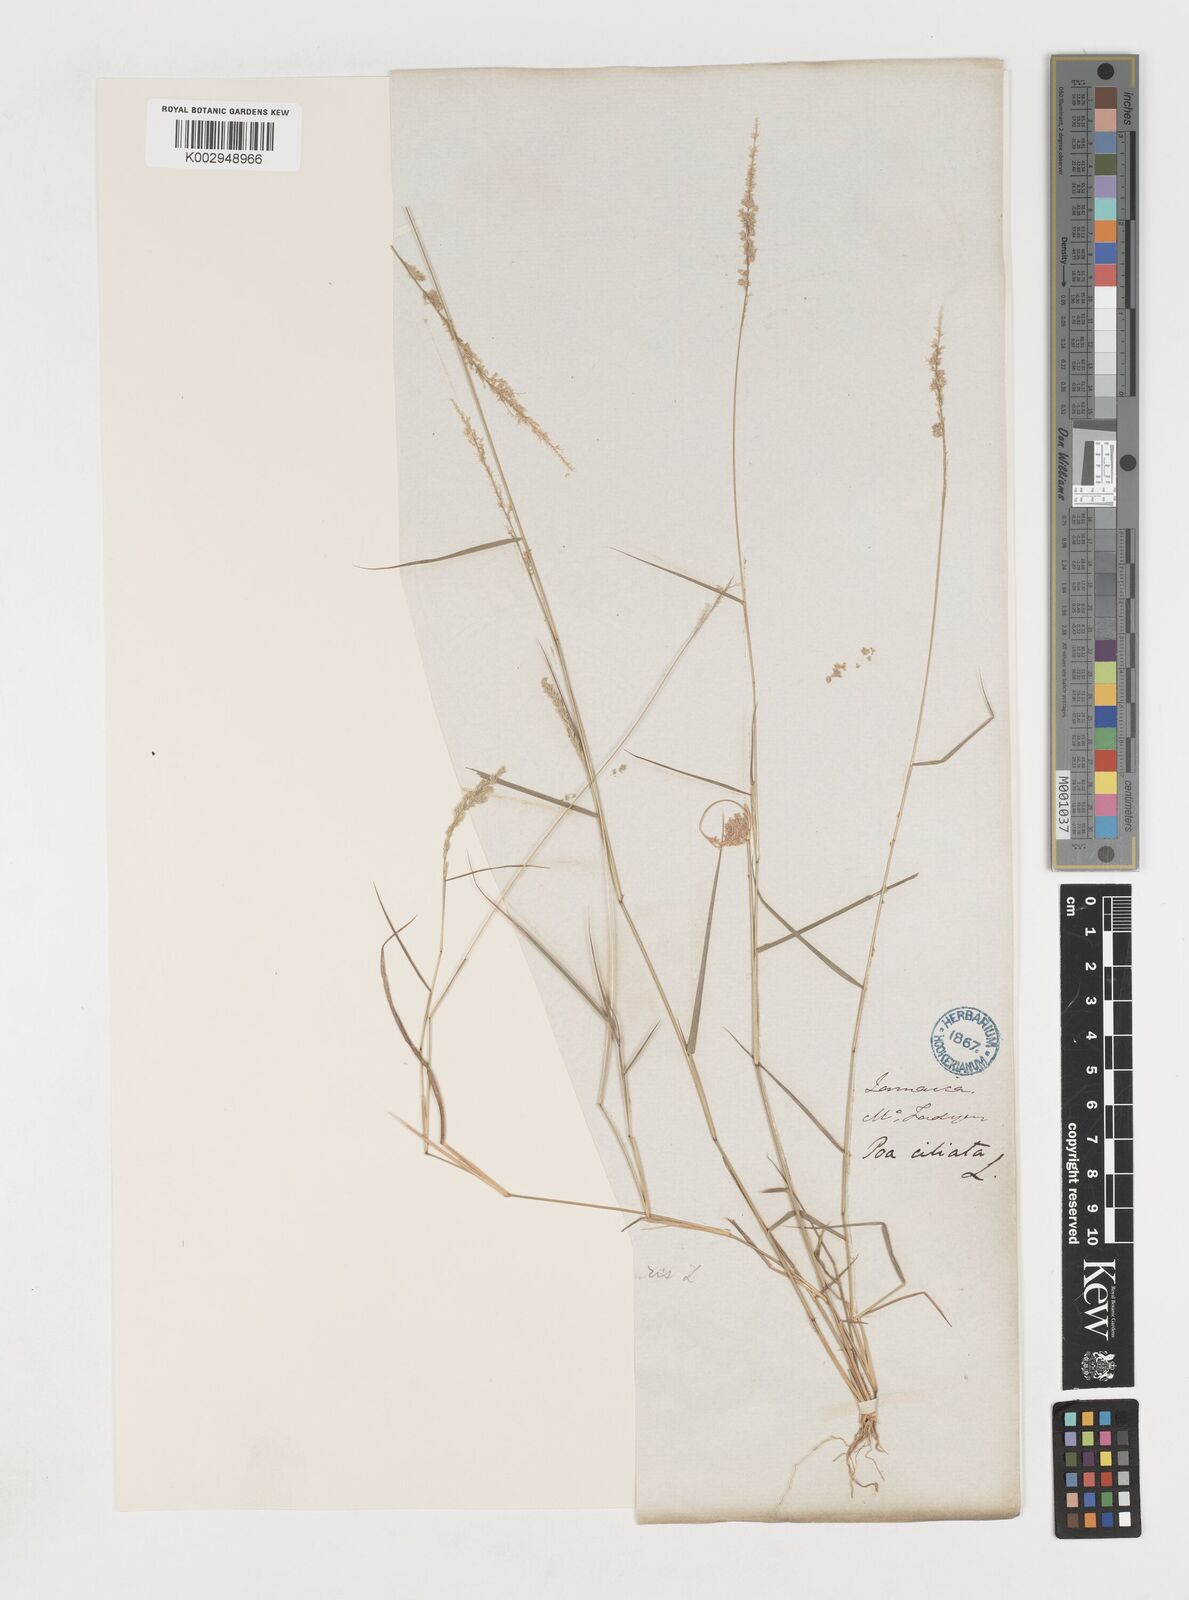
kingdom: Plantae
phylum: Tracheophyta
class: Liliopsida
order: Poales
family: Poaceae
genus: Eragrostis
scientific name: Eragrostis ciliaris
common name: Gophertail lovegrass
